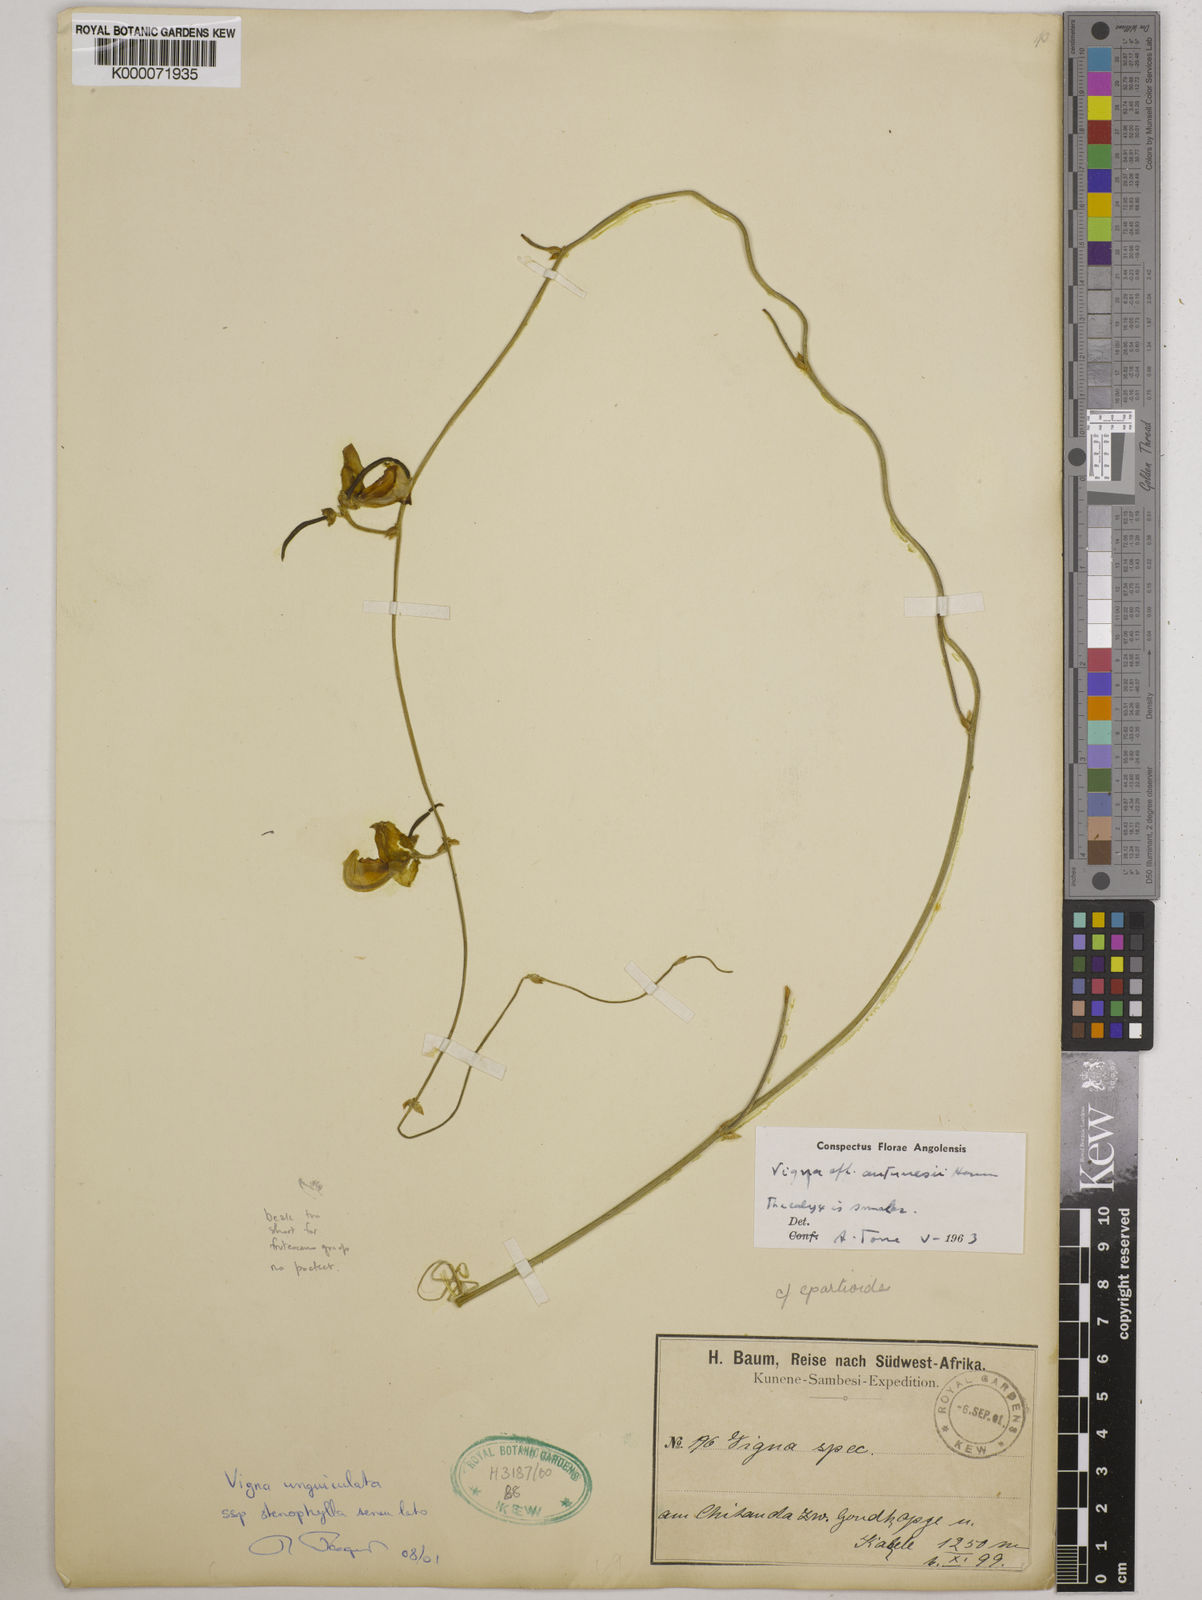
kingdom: Plantae
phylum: Tracheophyta
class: Magnoliopsida
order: Fabales
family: Fabaceae
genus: Vigna
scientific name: Vigna antunesii
